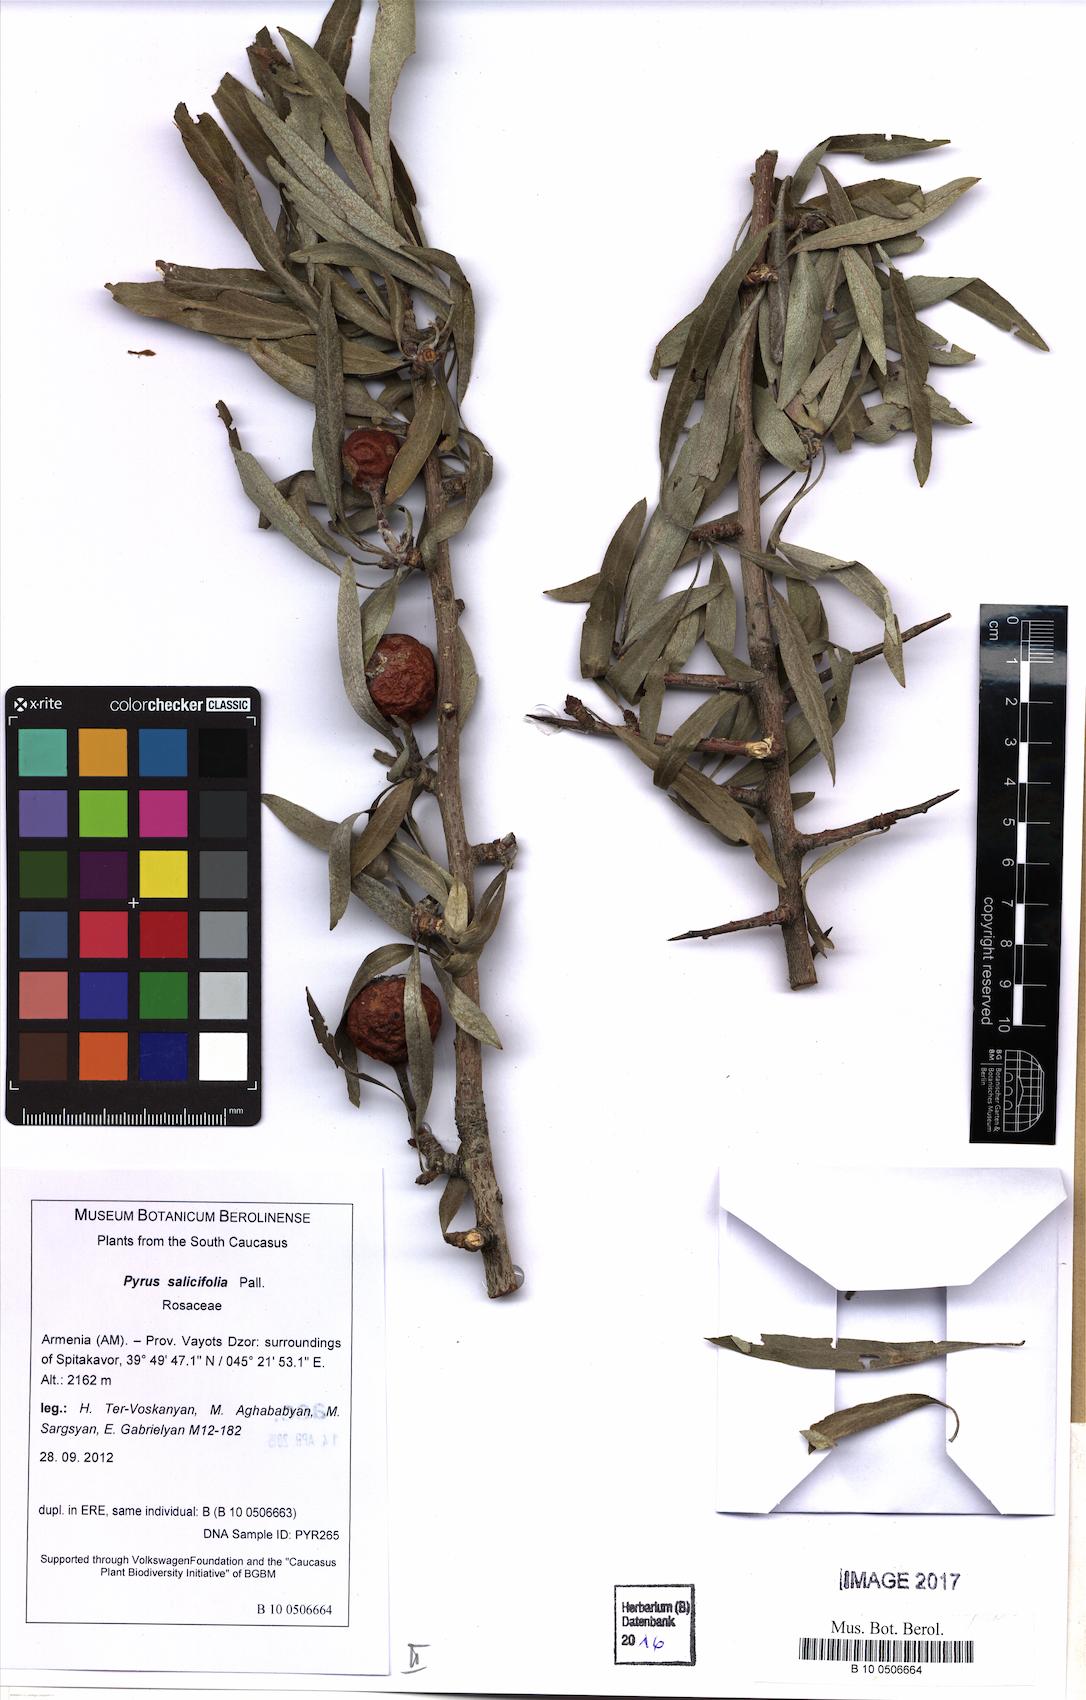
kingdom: Plantae
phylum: Tracheophyta
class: Magnoliopsida
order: Rosales
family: Rosaceae
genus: Pyrus
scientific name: Pyrus oxyprion
